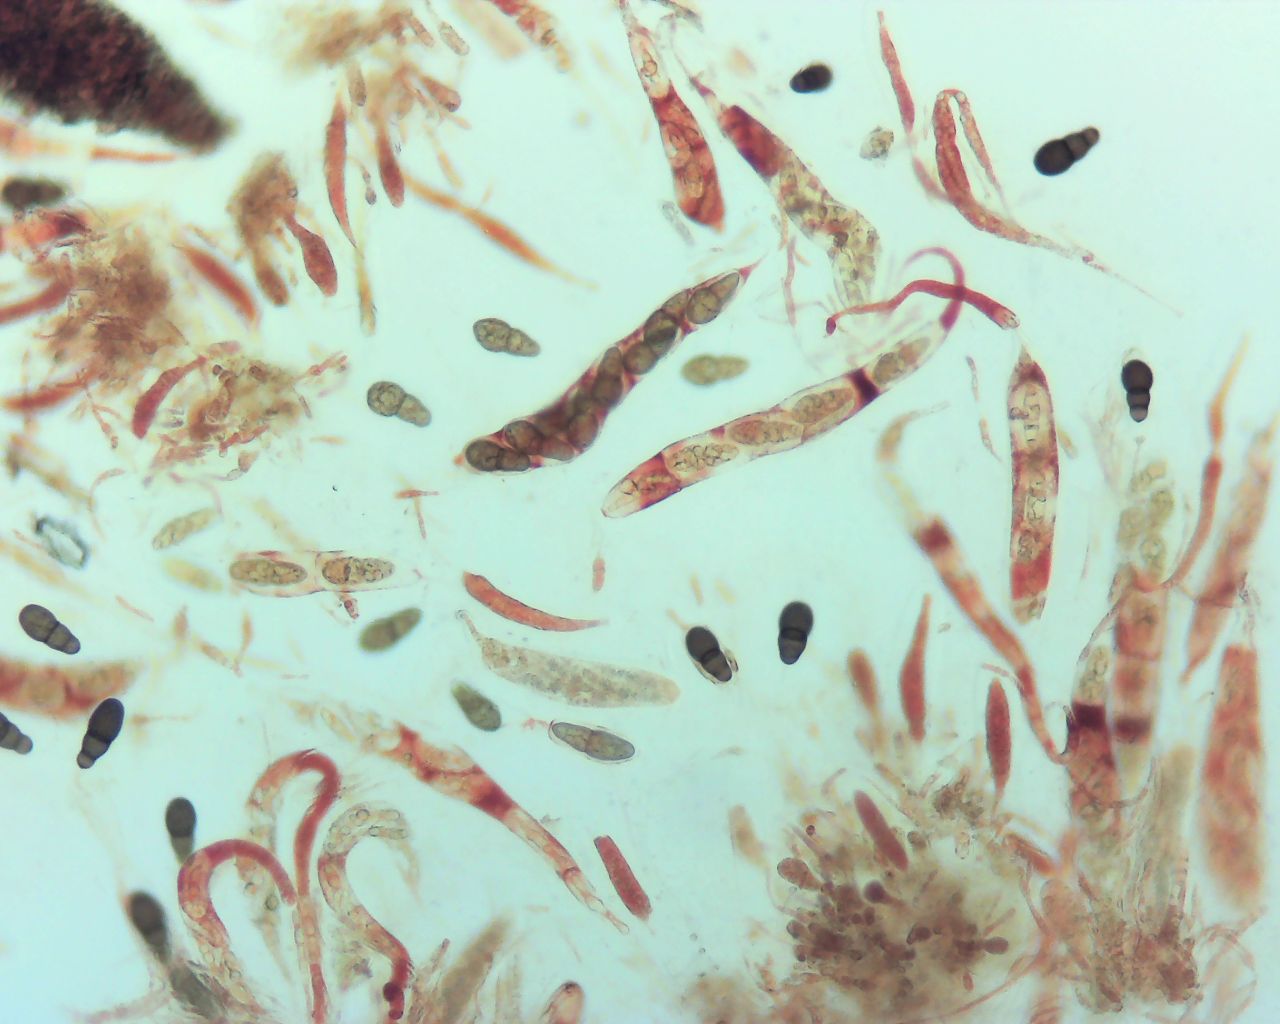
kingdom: Fungi
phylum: Ascomycota
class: Dothideomycetes
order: Pleosporales
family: Pleomassariaceae
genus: Splanchnonema
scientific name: Splanchnonema foedans
